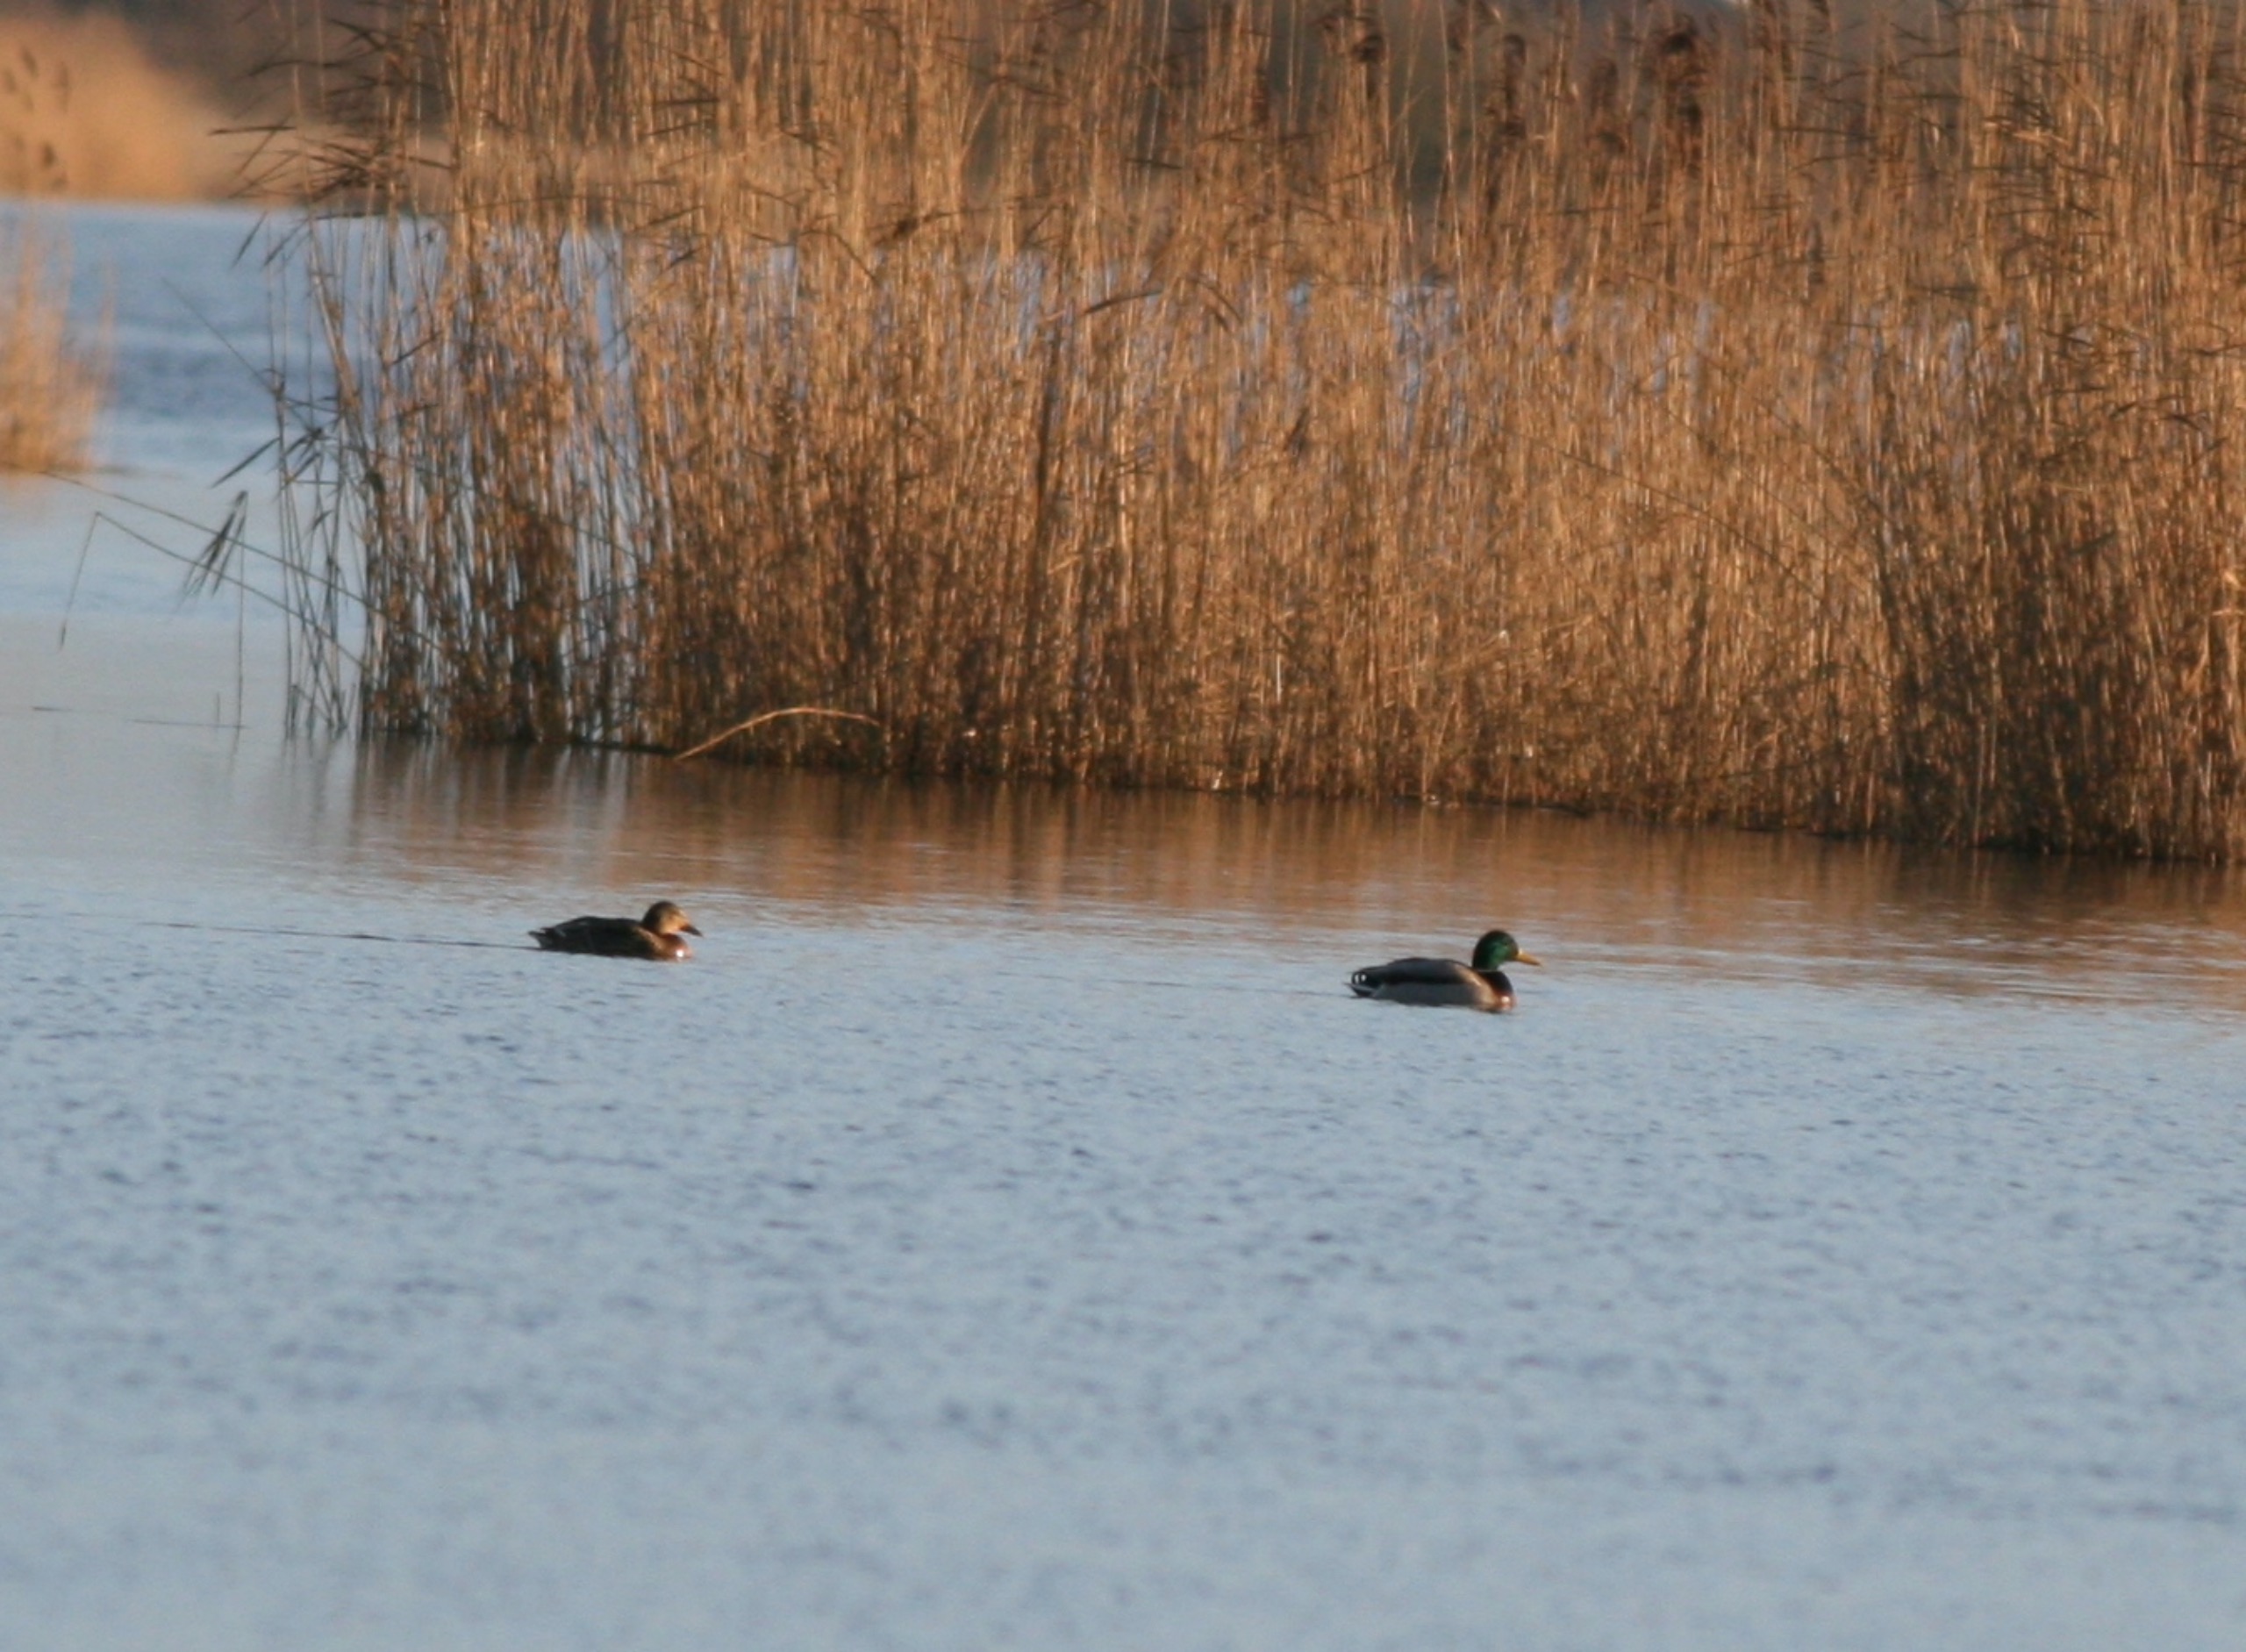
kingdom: Animalia
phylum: Chordata
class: Aves
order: Anseriformes
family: Anatidae
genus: Anas
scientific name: Anas platyrhynchos
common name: Gråand
